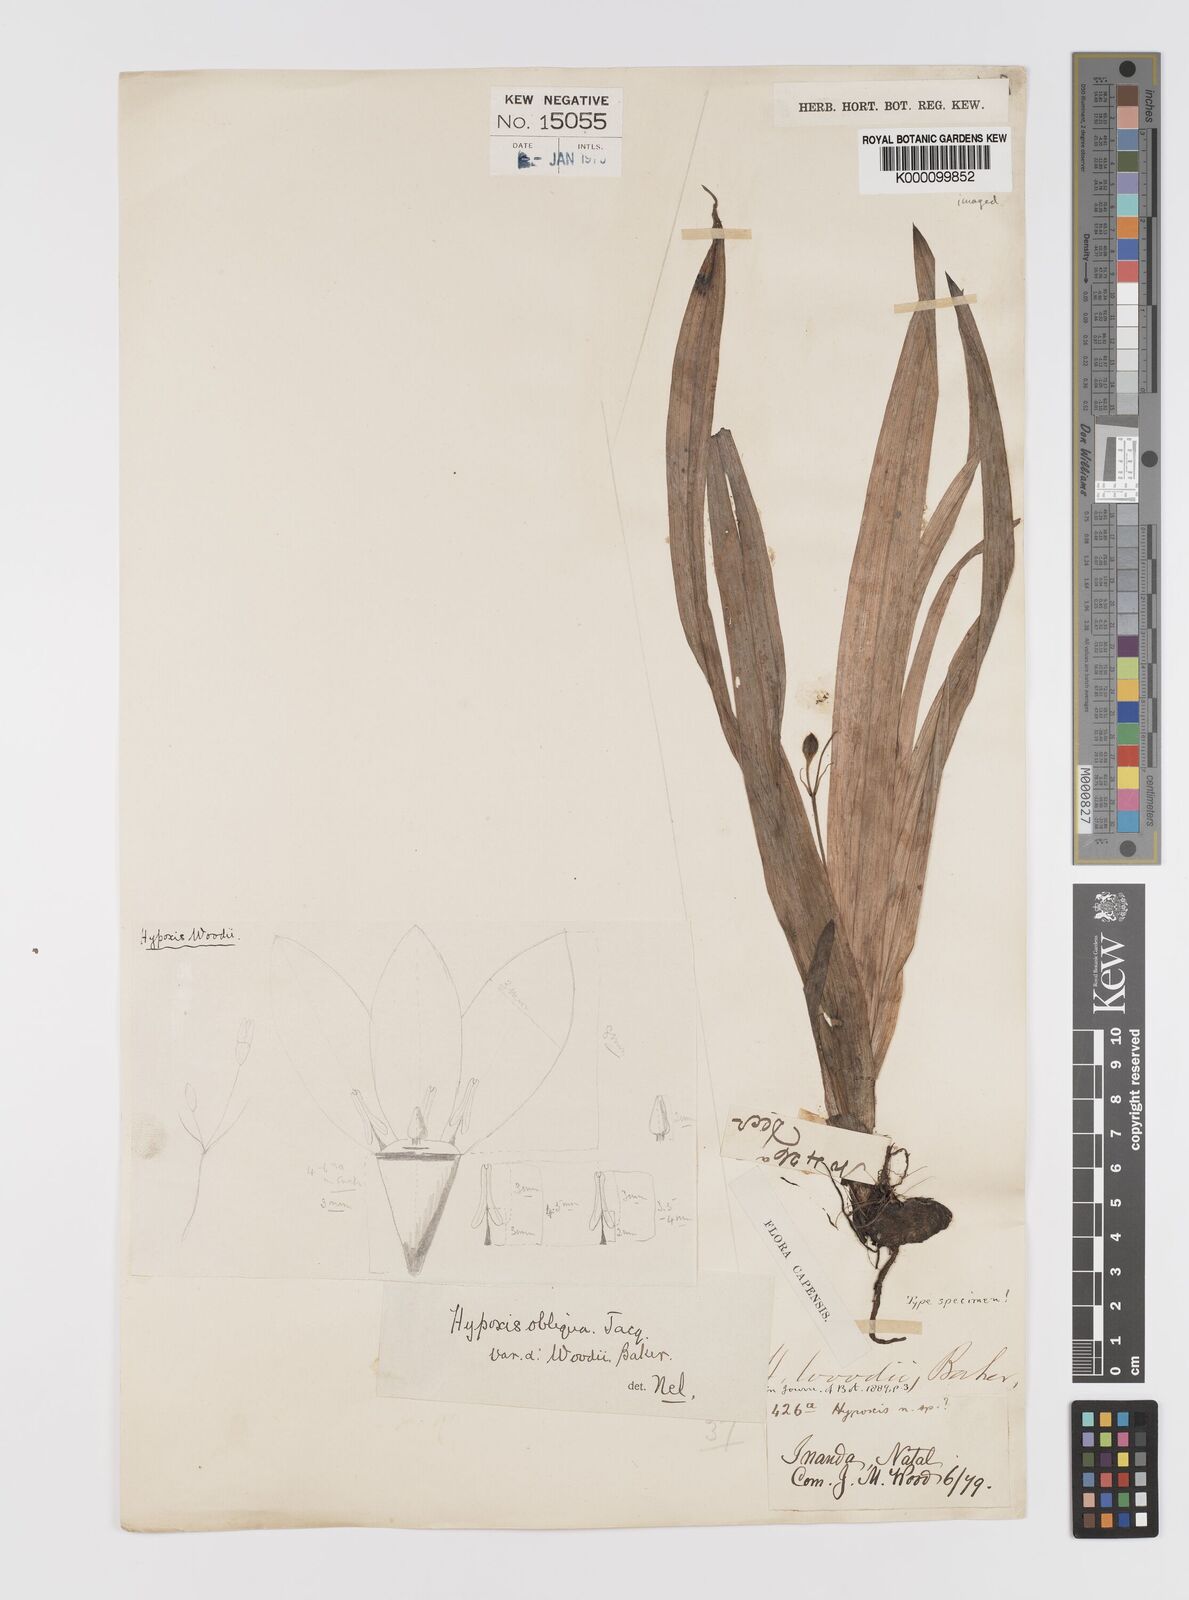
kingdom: Plantae
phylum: Tracheophyta
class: Liliopsida
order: Asparagales
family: Hypoxidaceae
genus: Hypoxis
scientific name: Hypoxis villosa
